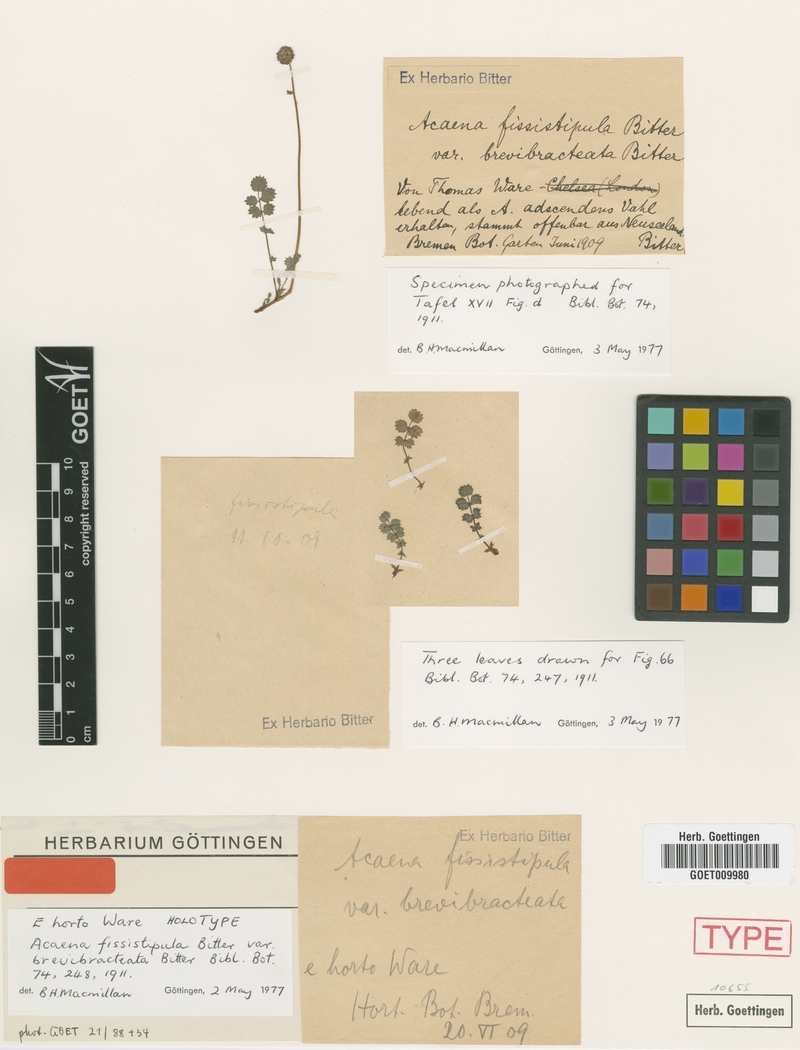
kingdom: Plantae
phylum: Tracheophyta
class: Magnoliopsida
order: Rosales
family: Rosaceae
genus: Acaena
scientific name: Acaena fissistipula
